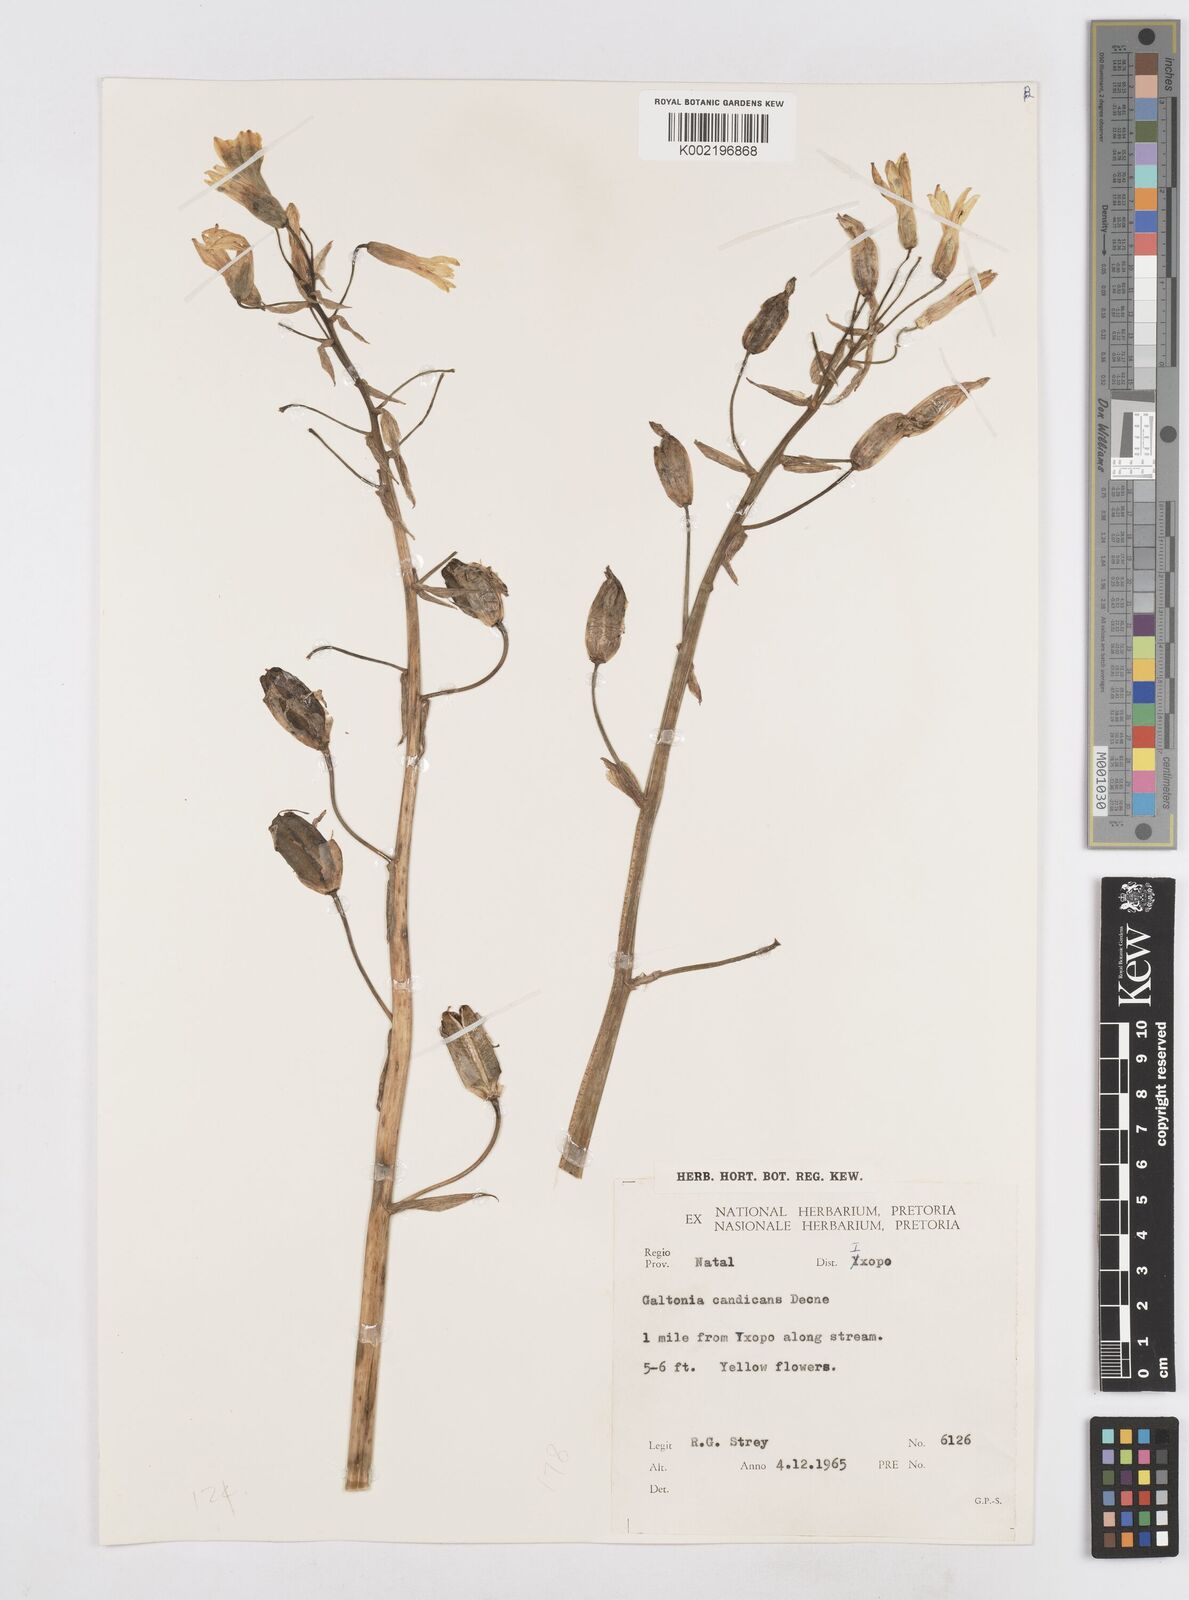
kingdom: Plantae
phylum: Tracheophyta
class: Liliopsida
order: Asparagales
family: Asparagaceae
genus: Ornithogalum
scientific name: Ornithogalum princeps
